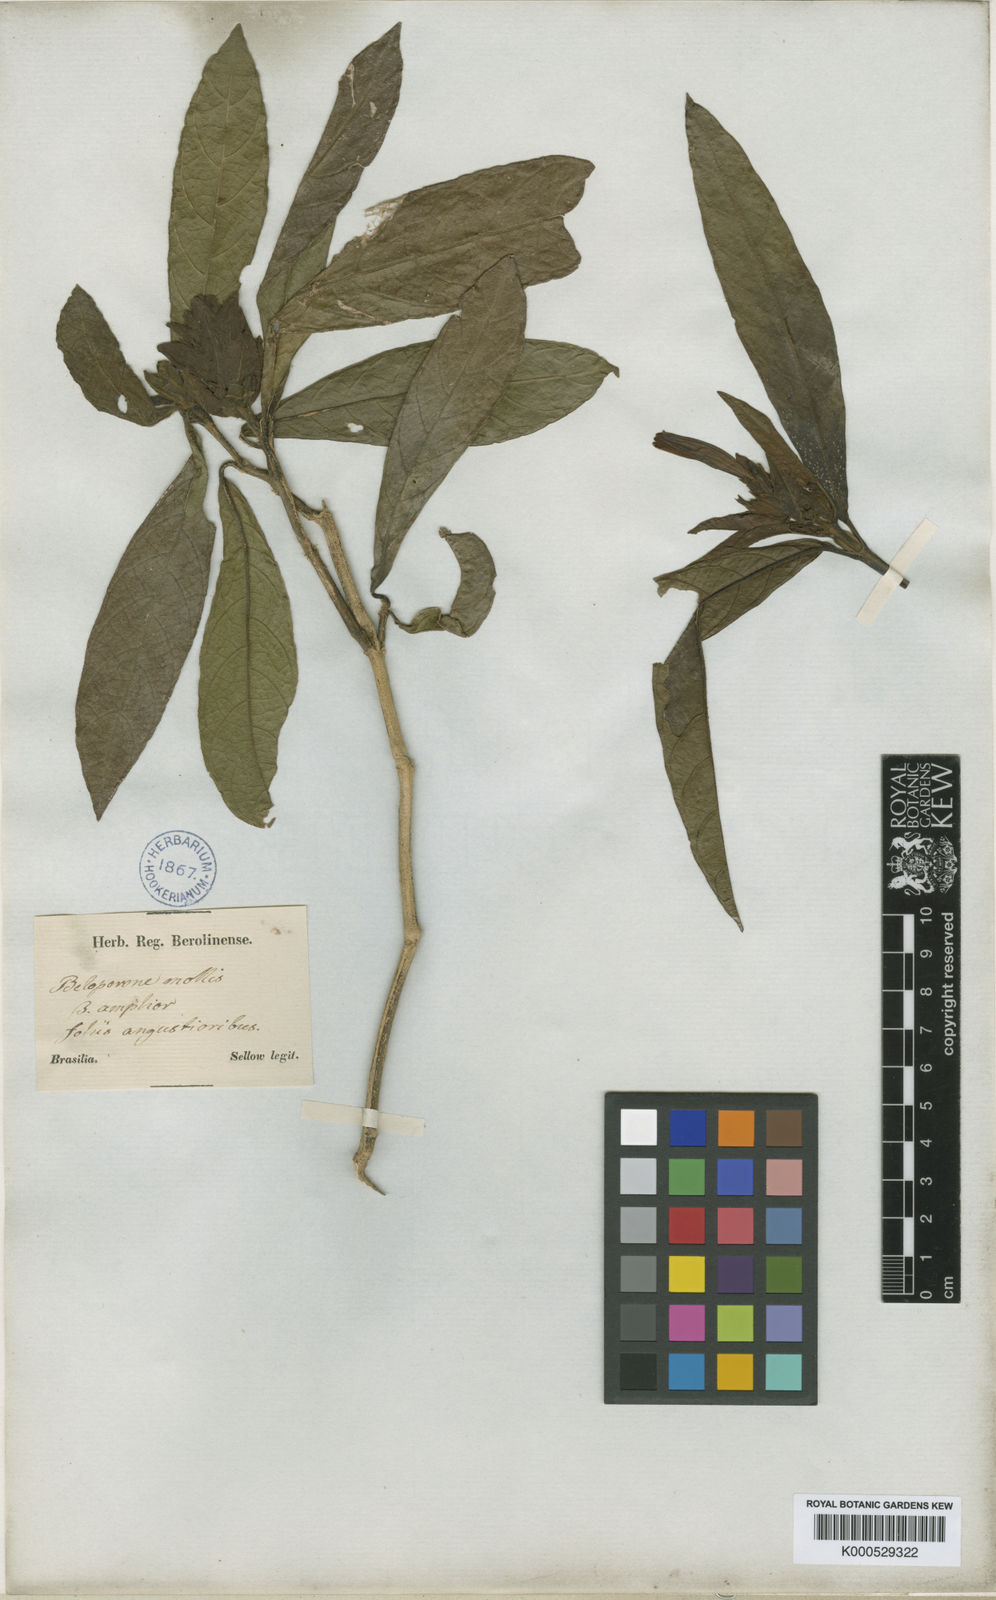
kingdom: Plantae
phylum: Tracheophyta
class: Magnoliopsida
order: Lamiales
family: Acanthaceae
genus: Justicia
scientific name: Justicia riparia
